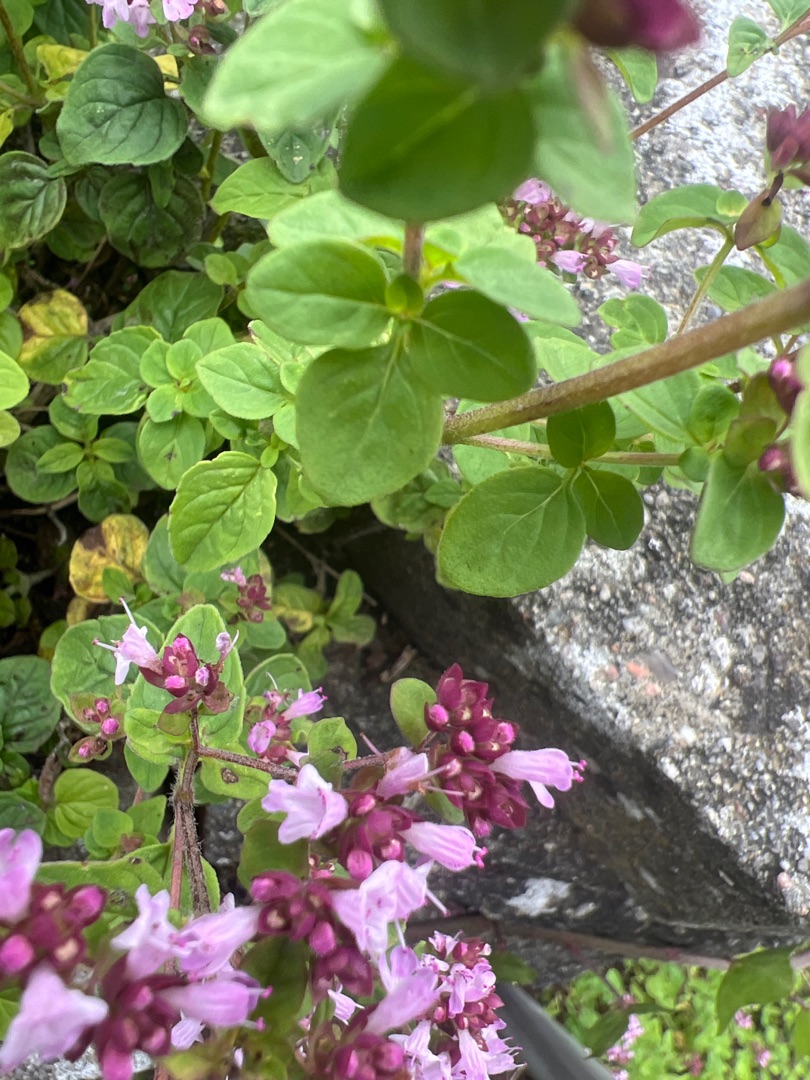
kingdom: Plantae
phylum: Tracheophyta
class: Magnoliopsida
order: Lamiales
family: Lamiaceae
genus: Origanum
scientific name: Origanum vulgare
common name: Merian
